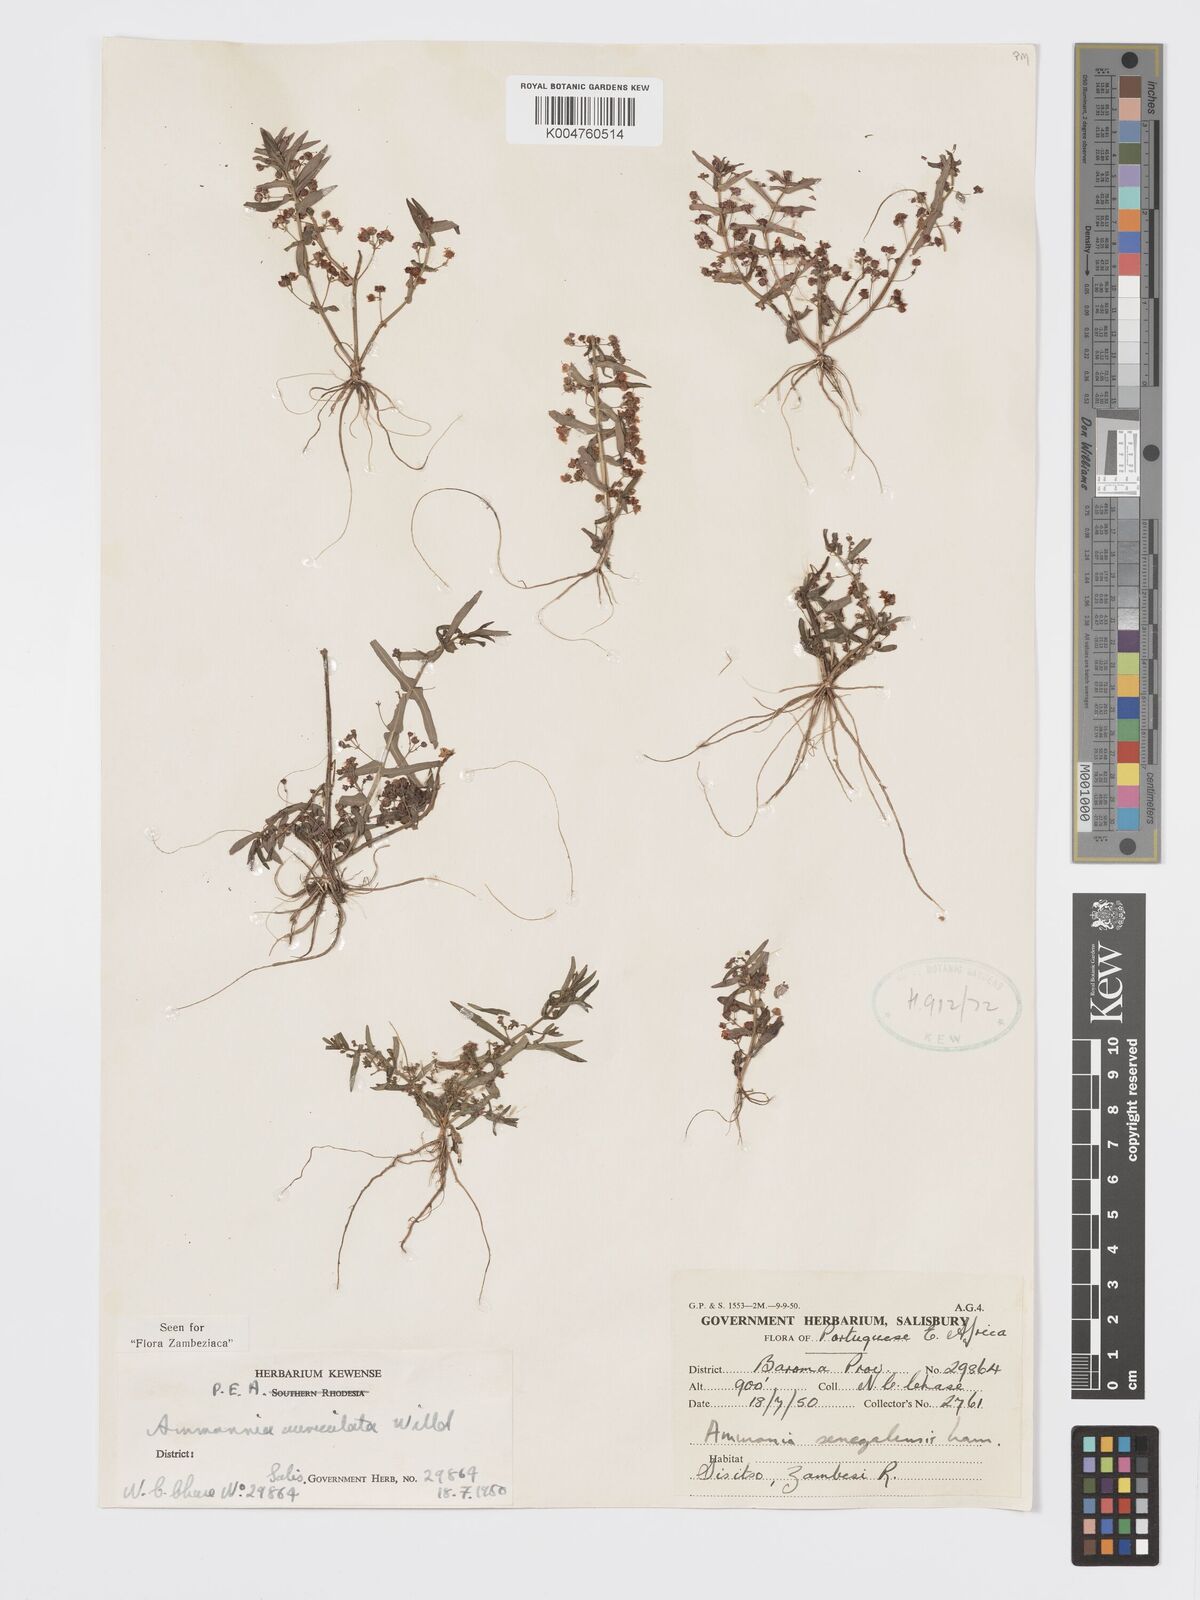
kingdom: Plantae
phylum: Tracheophyta
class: Magnoliopsida
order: Myrtales
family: Lythraceae
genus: Ammannia
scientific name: Ammannia auriculata
